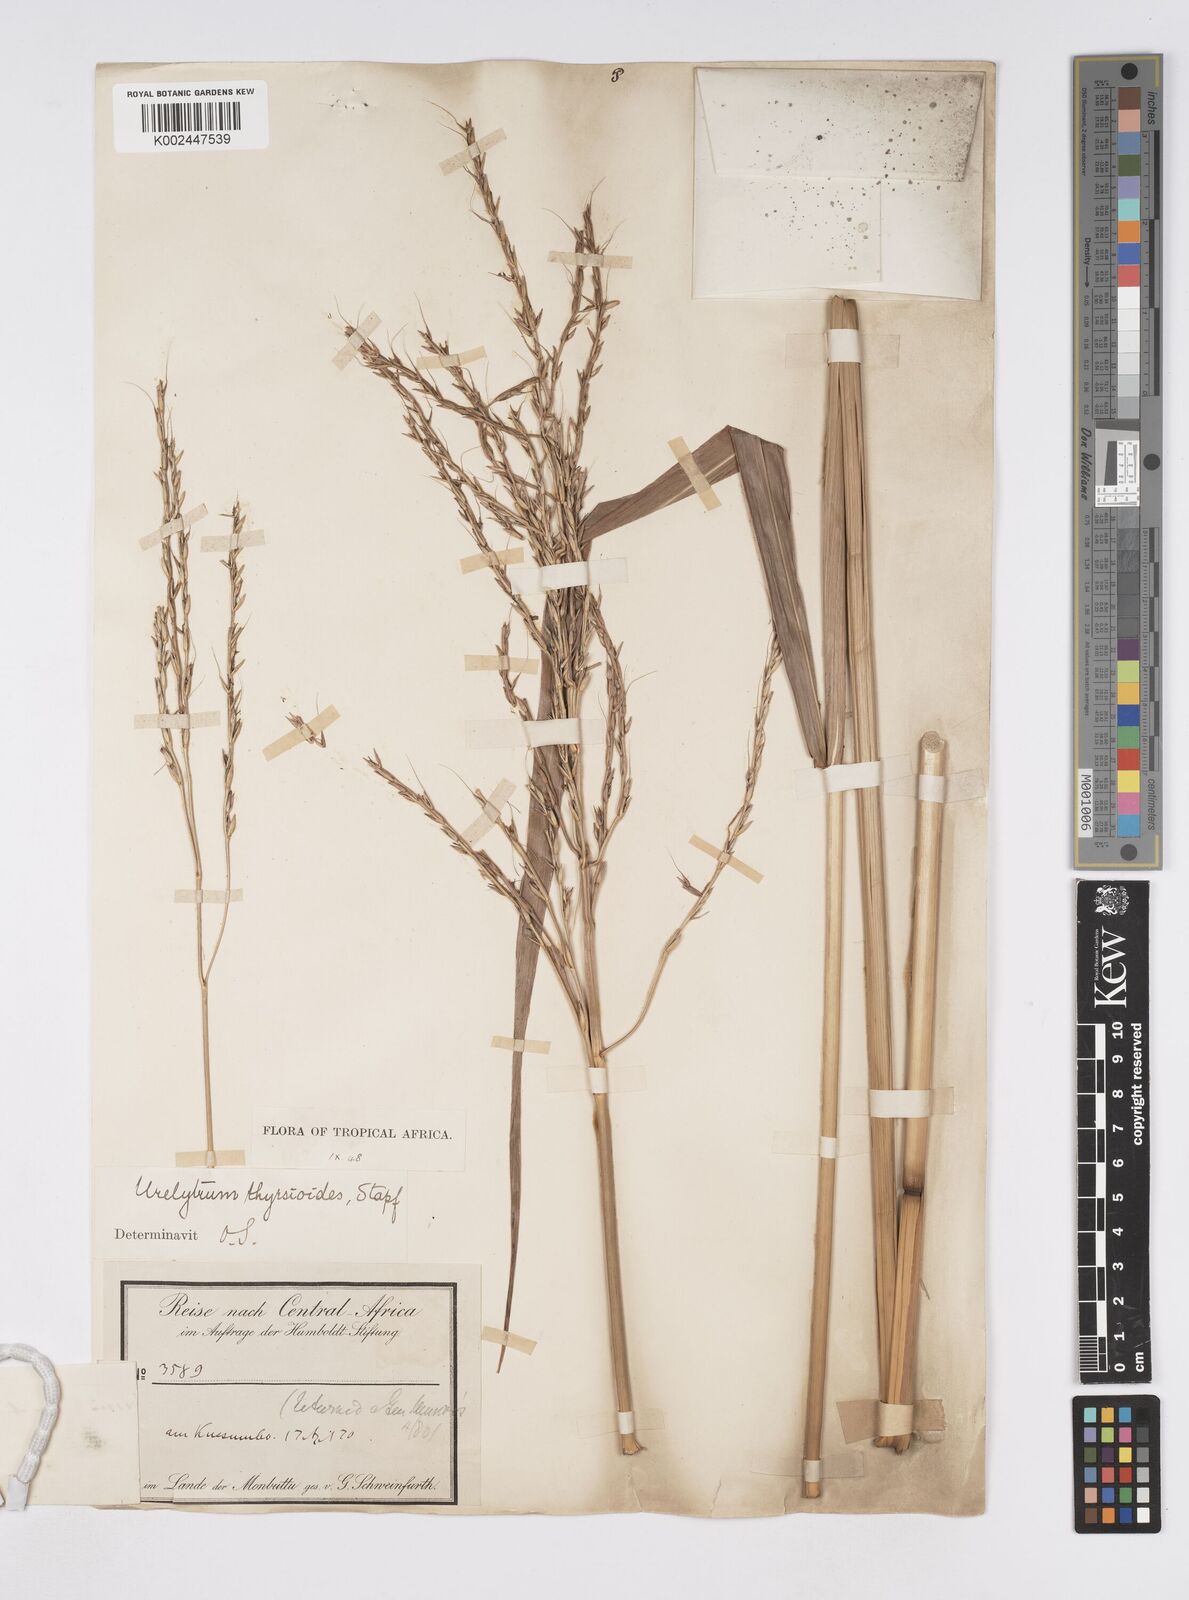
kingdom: Plantae
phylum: Tracheophyta
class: Liliopsida
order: Poales
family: Poaceae
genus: Urelytrum
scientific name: Urelytrum giganteum
